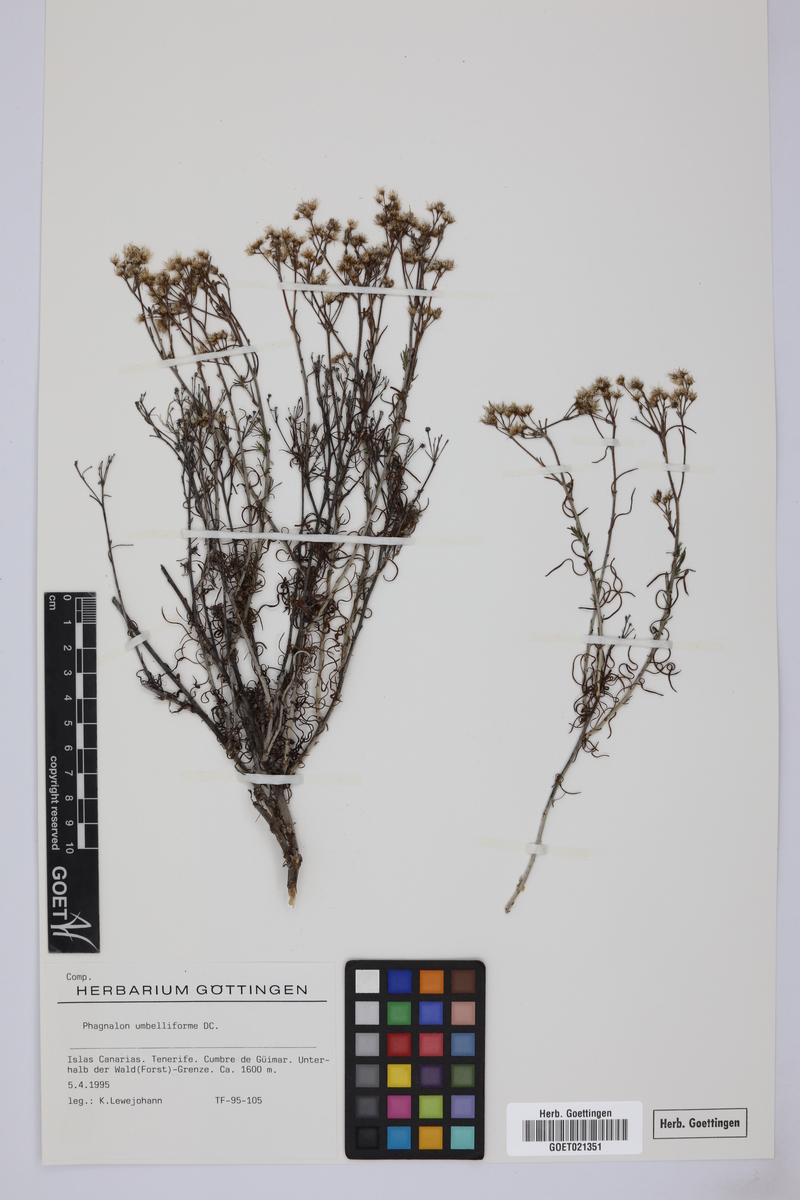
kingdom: Plantae
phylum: Tracheophyta
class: Magnoliopsida
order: Asterales
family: Asteraceae
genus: Phagnalon
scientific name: Phagnalon umbelliforme
